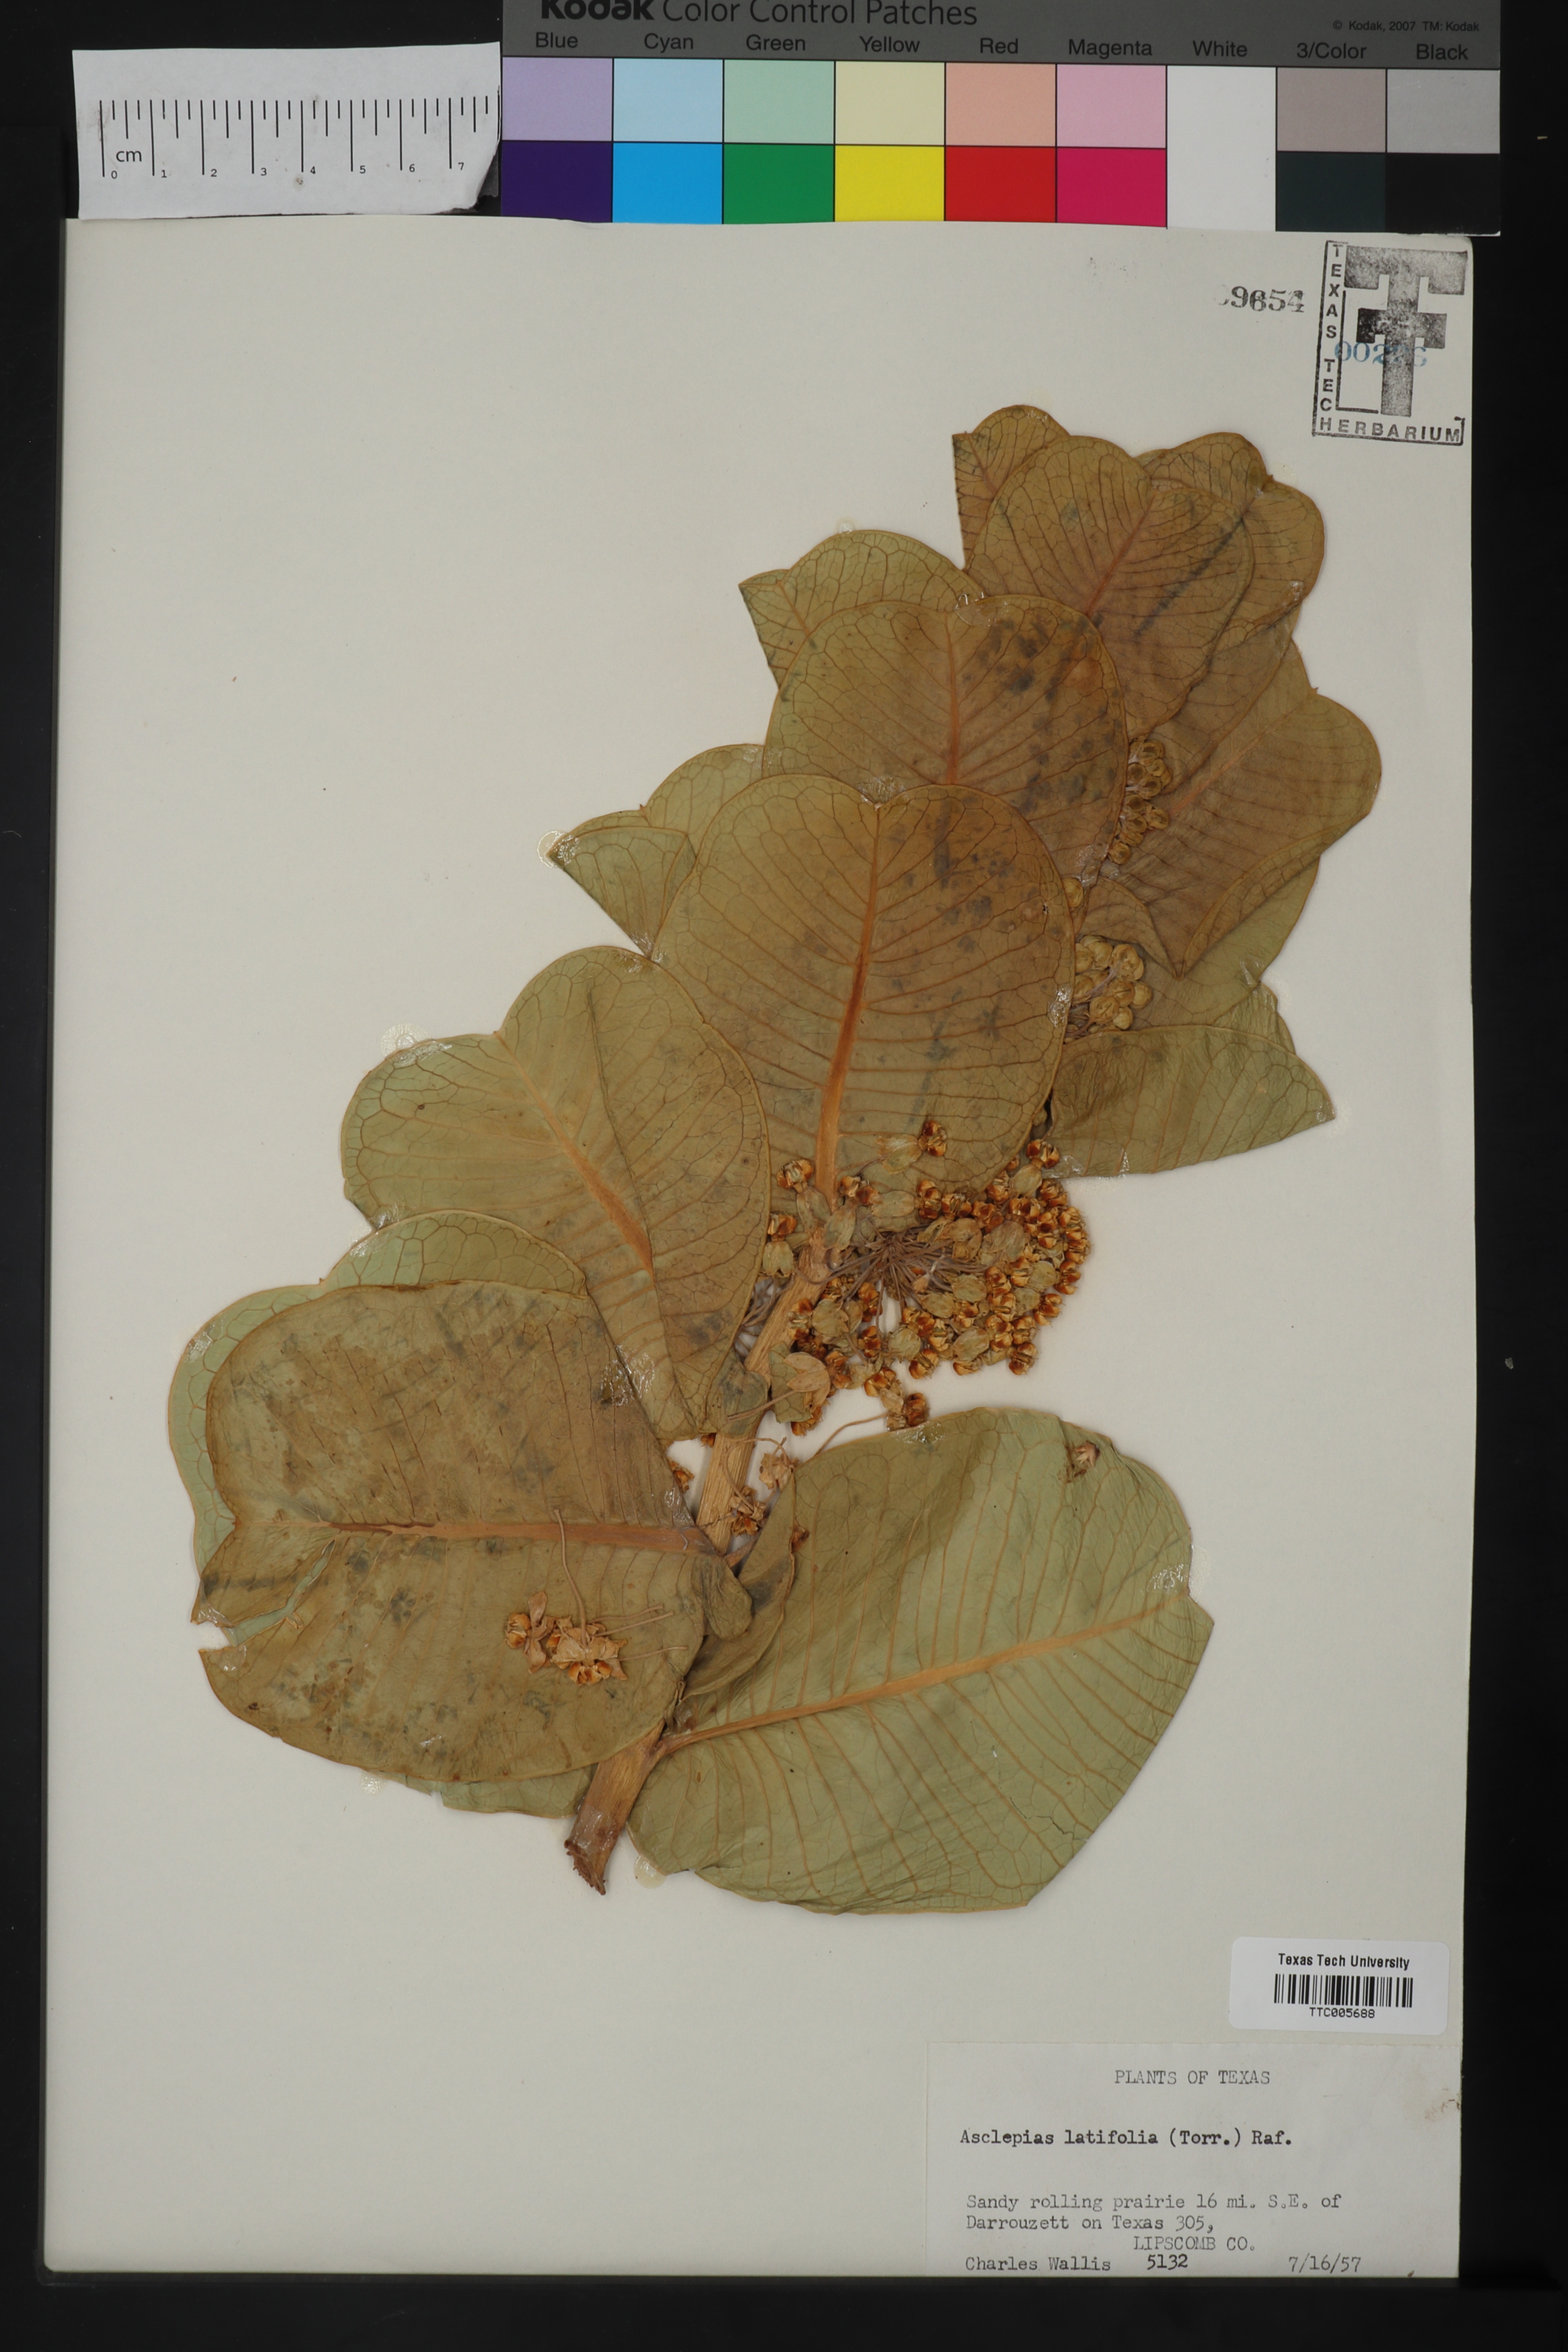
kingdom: Plantae
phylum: Tracheophyta
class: Magnoliopsida
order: Gentianales
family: Apocynaceae
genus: Asclepias
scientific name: Asclepias latifolia
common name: Broadleaf milkweed
